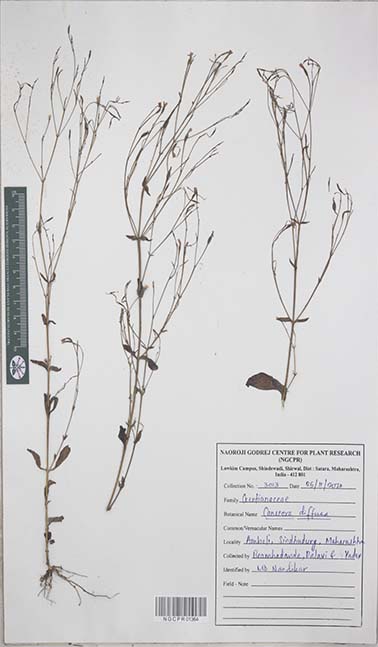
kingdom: Plantae
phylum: Tracheophyta
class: Magnoliopsida
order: Gentianales
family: Gentianaceae
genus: Canscora
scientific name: Canscora diffusa
